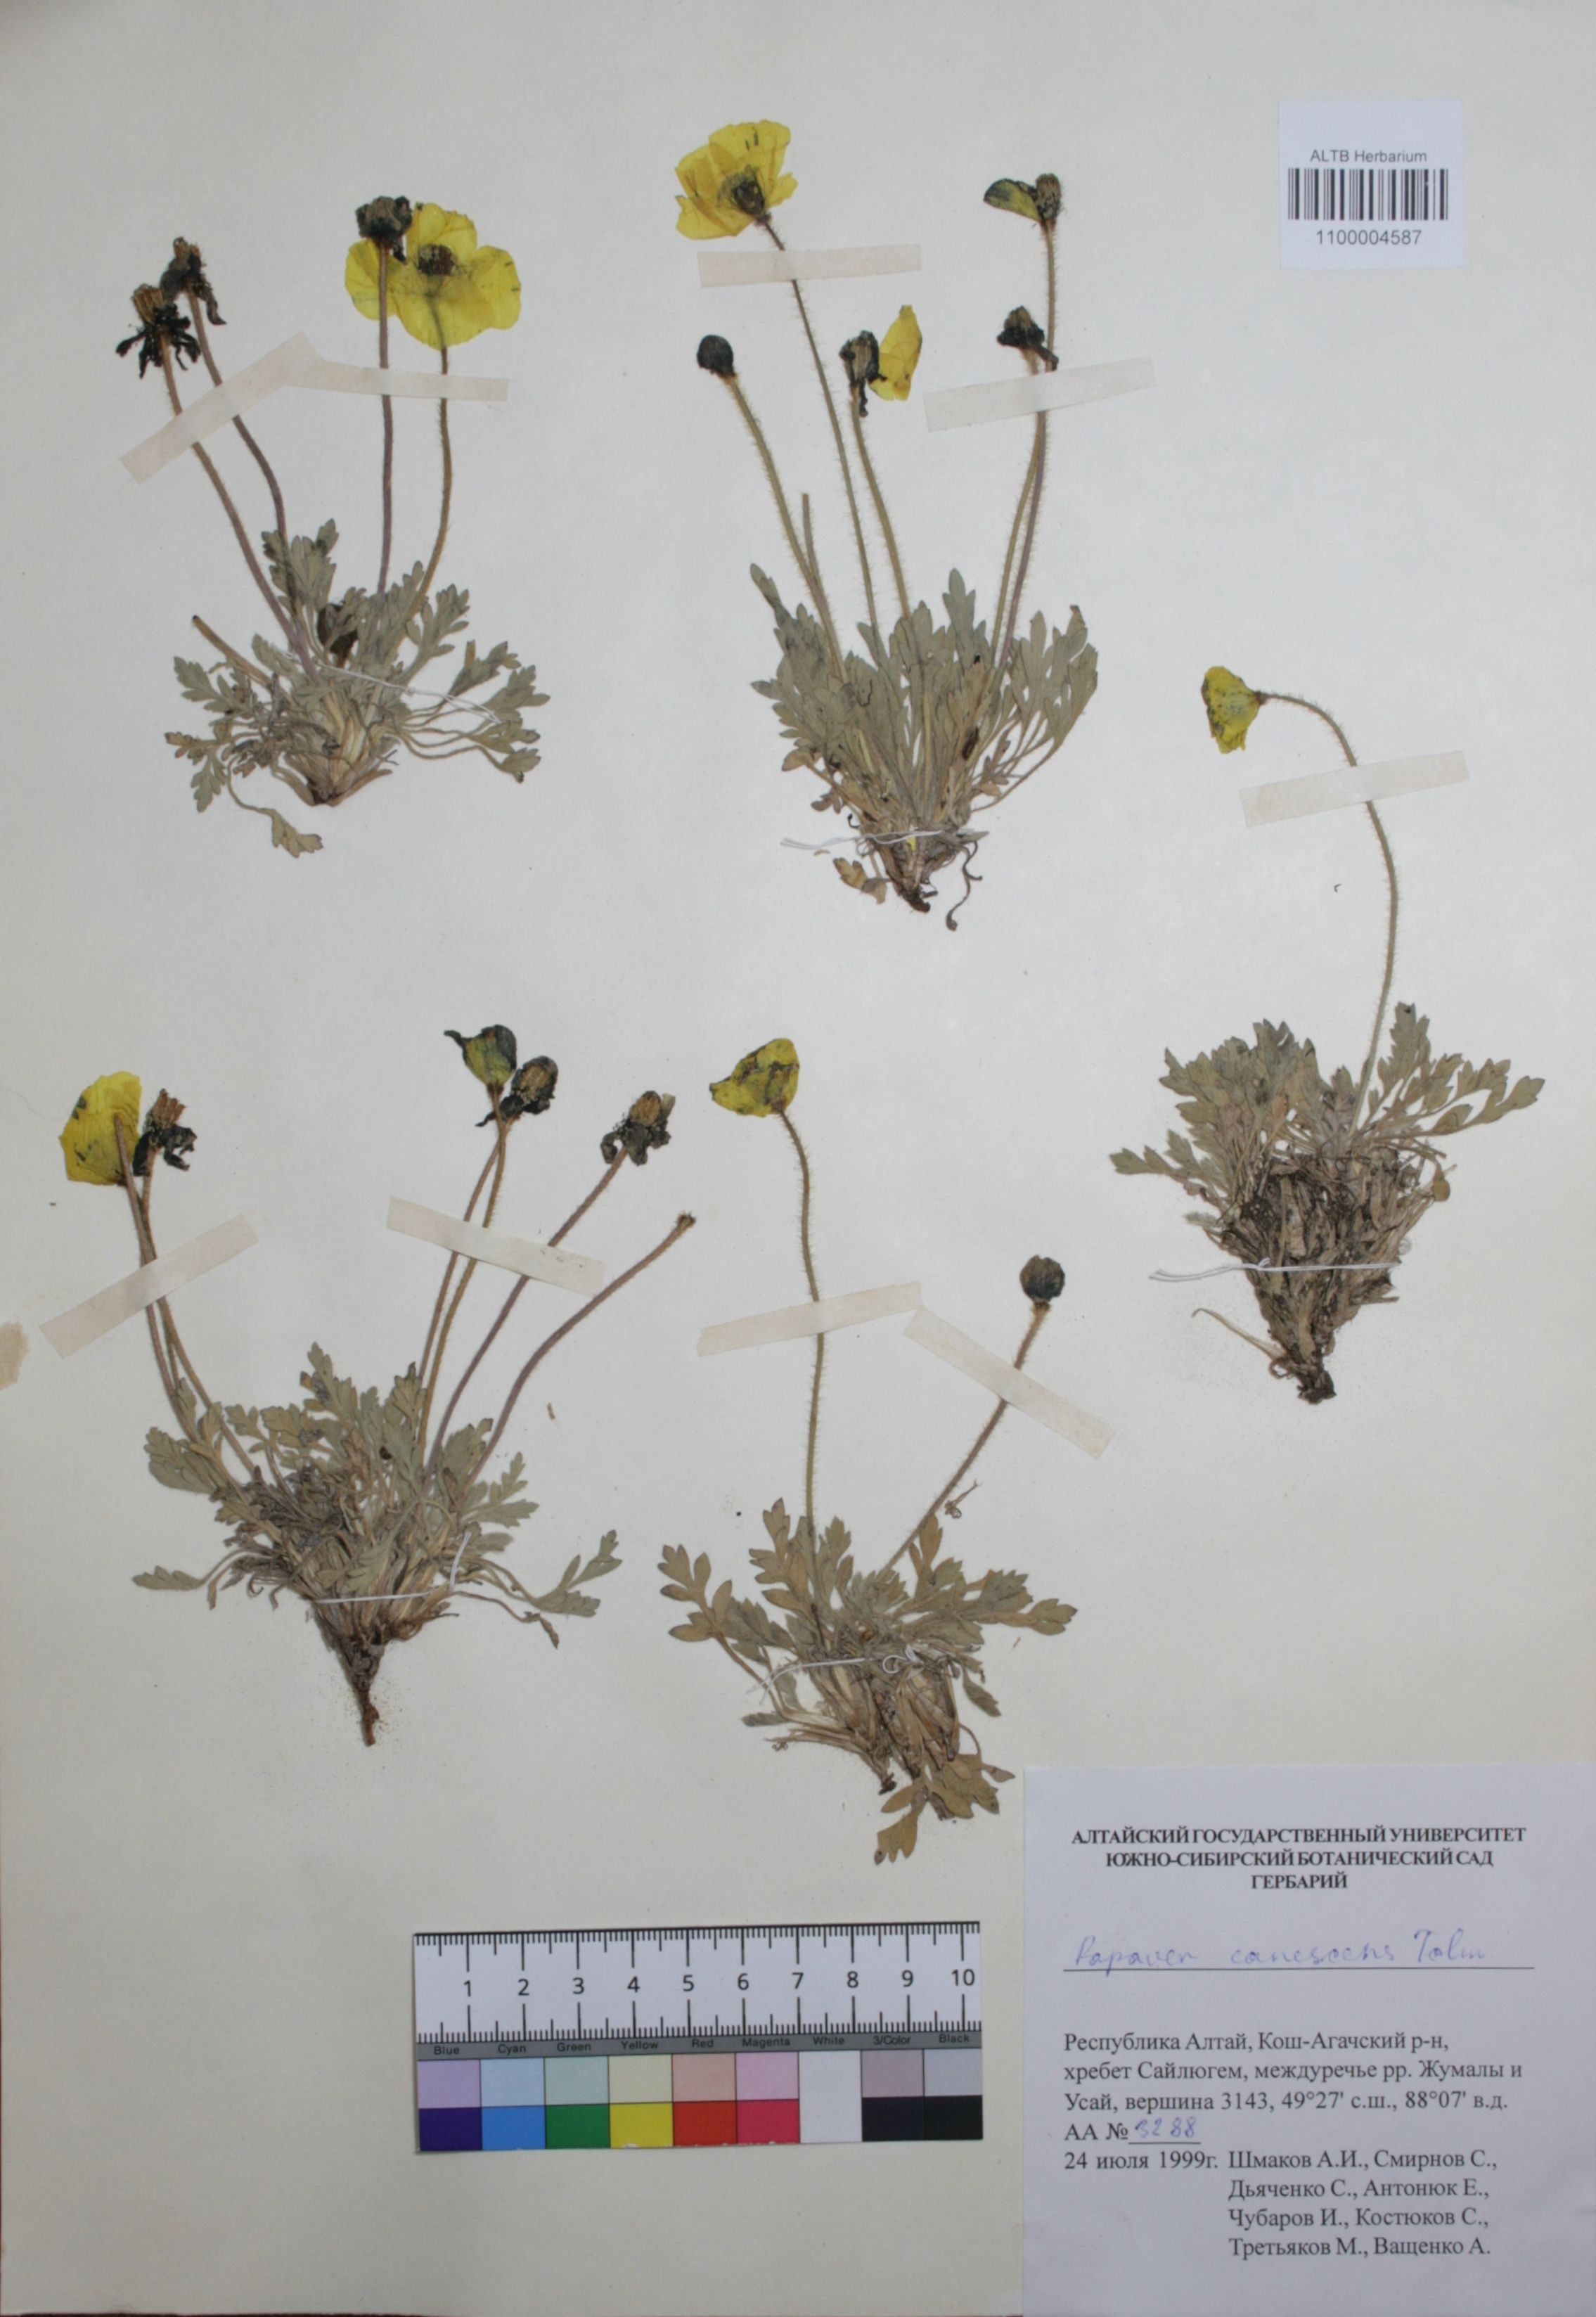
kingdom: Plantae
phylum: Tracheophyta
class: Magnoliopsida
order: Ranunculales
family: Papaveraceae
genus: Papaver
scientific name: Papaver canescens
